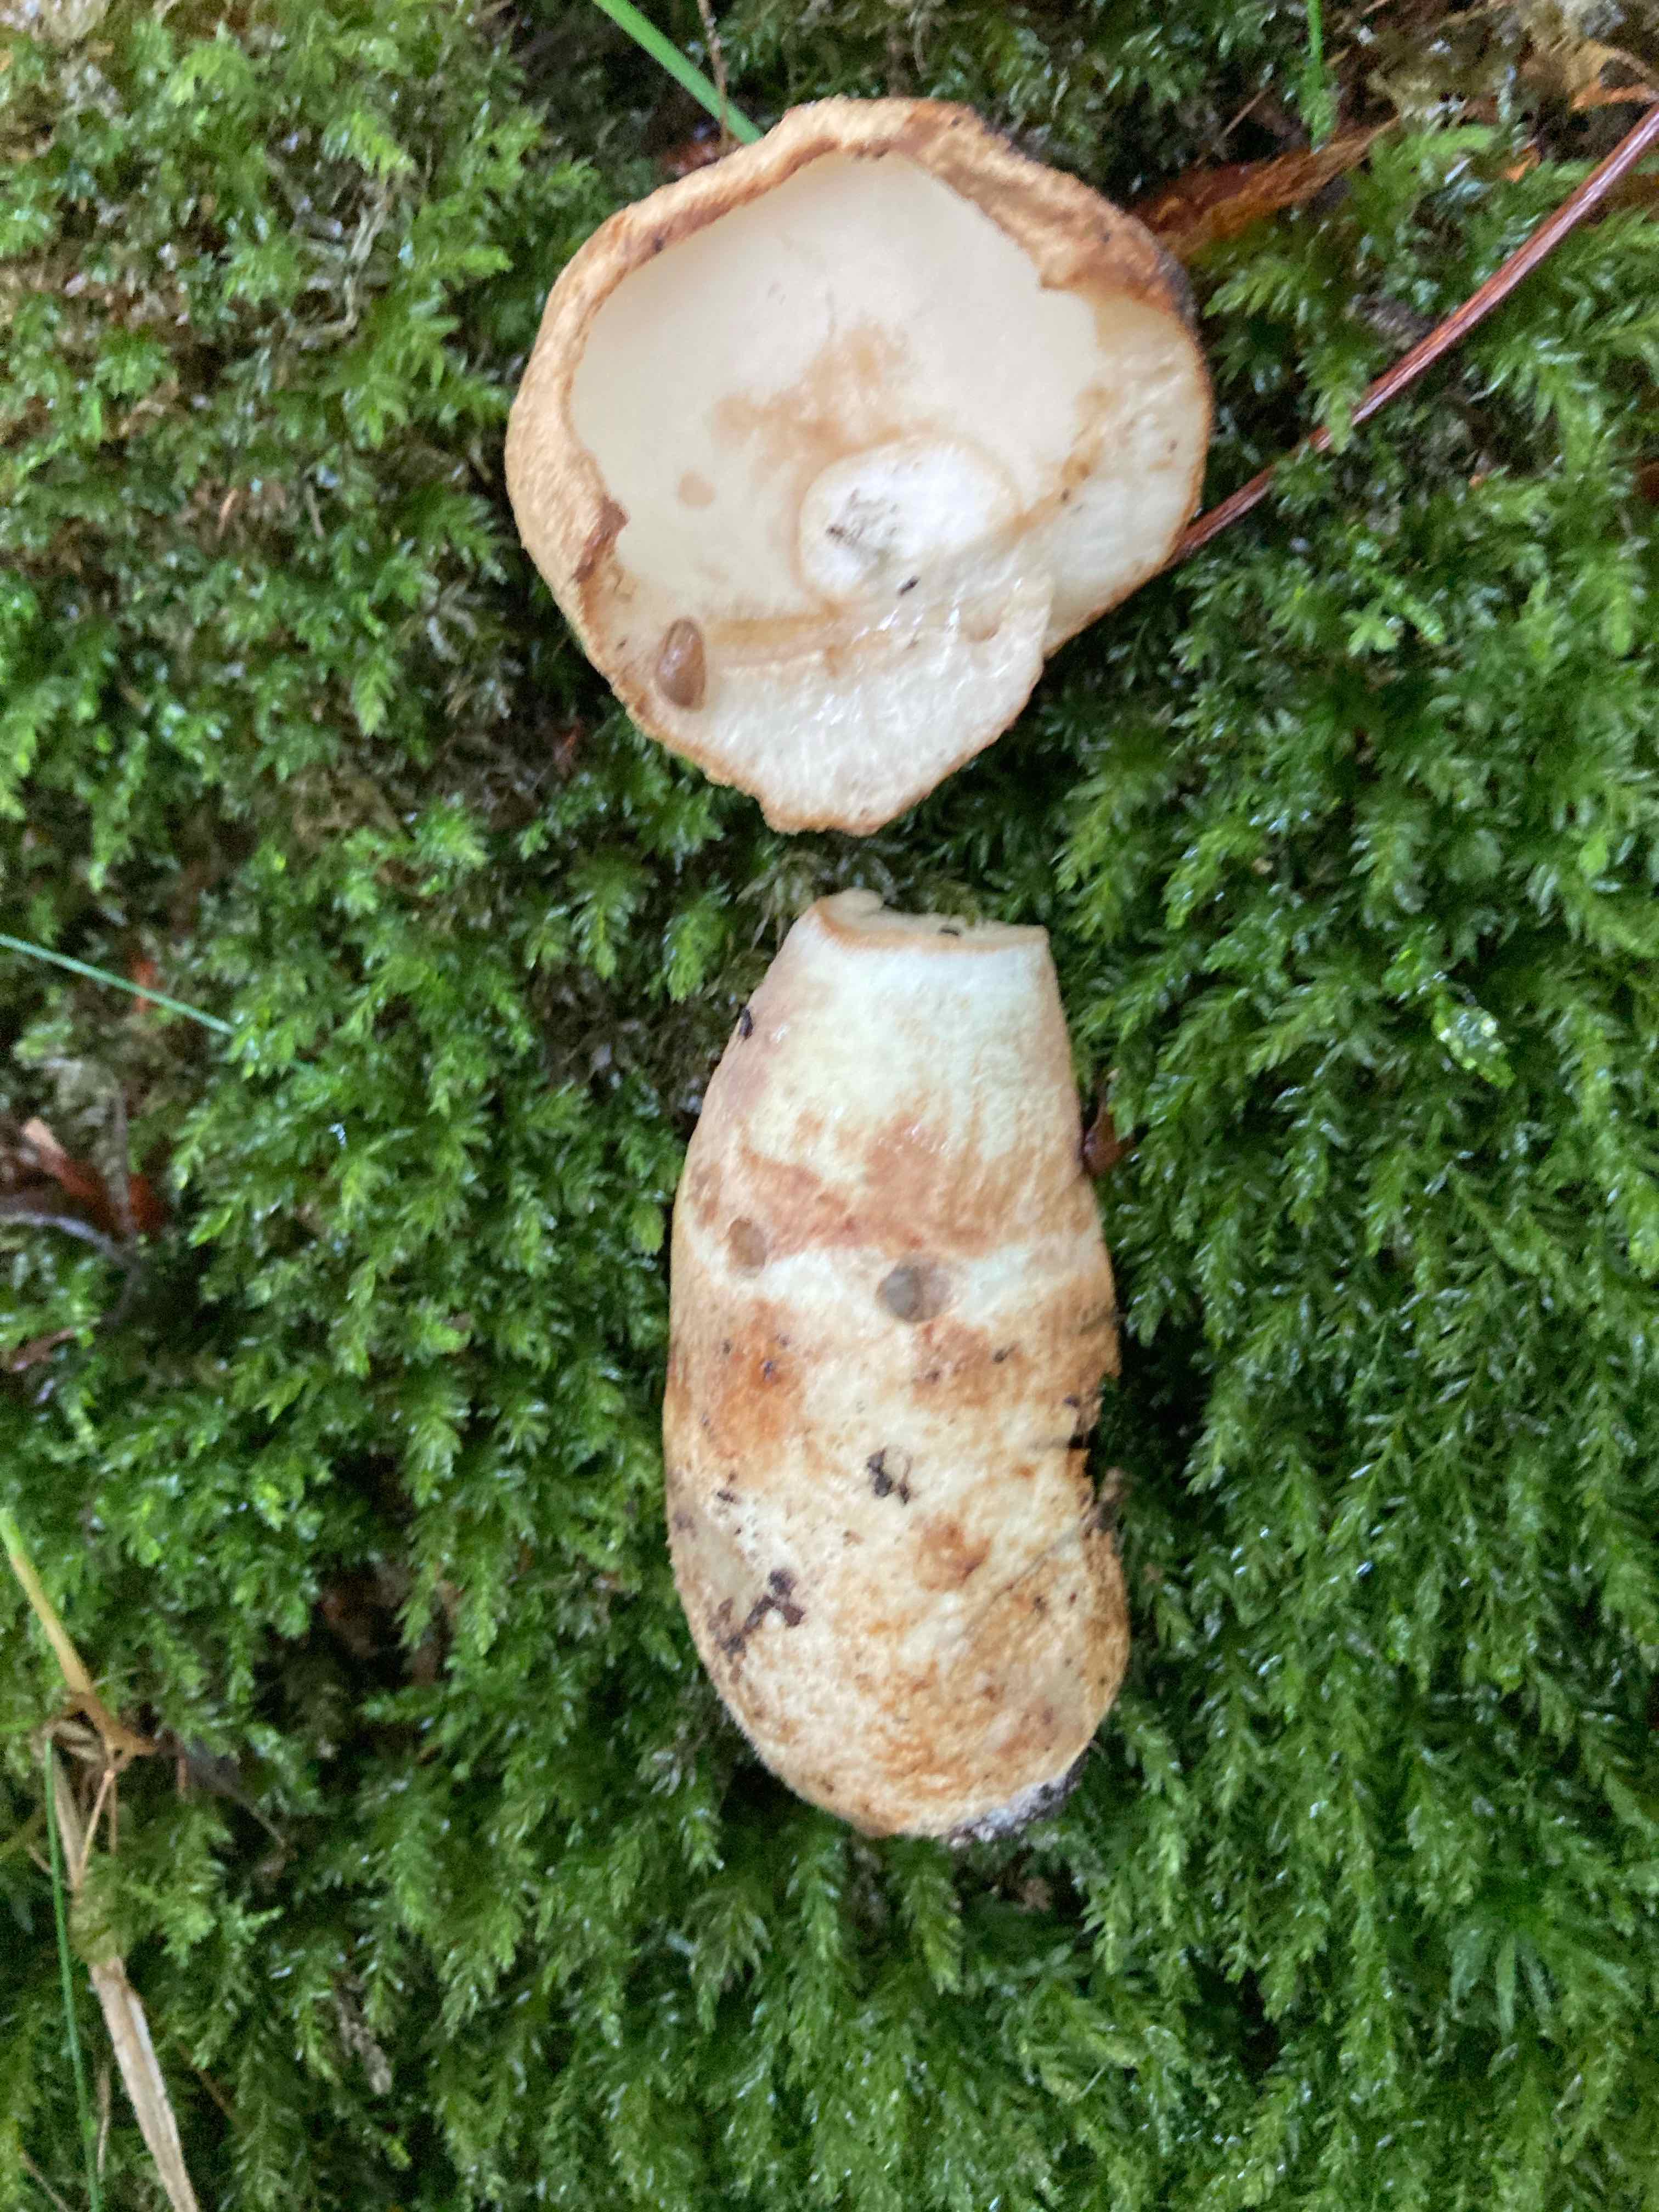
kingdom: Fungi
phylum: Basidiomycota
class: Agaricomycetes
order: Boletales
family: Gyroporaceae
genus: Gyroporus
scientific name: Gyroporus cyanescens
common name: blånende kammerrørhat
